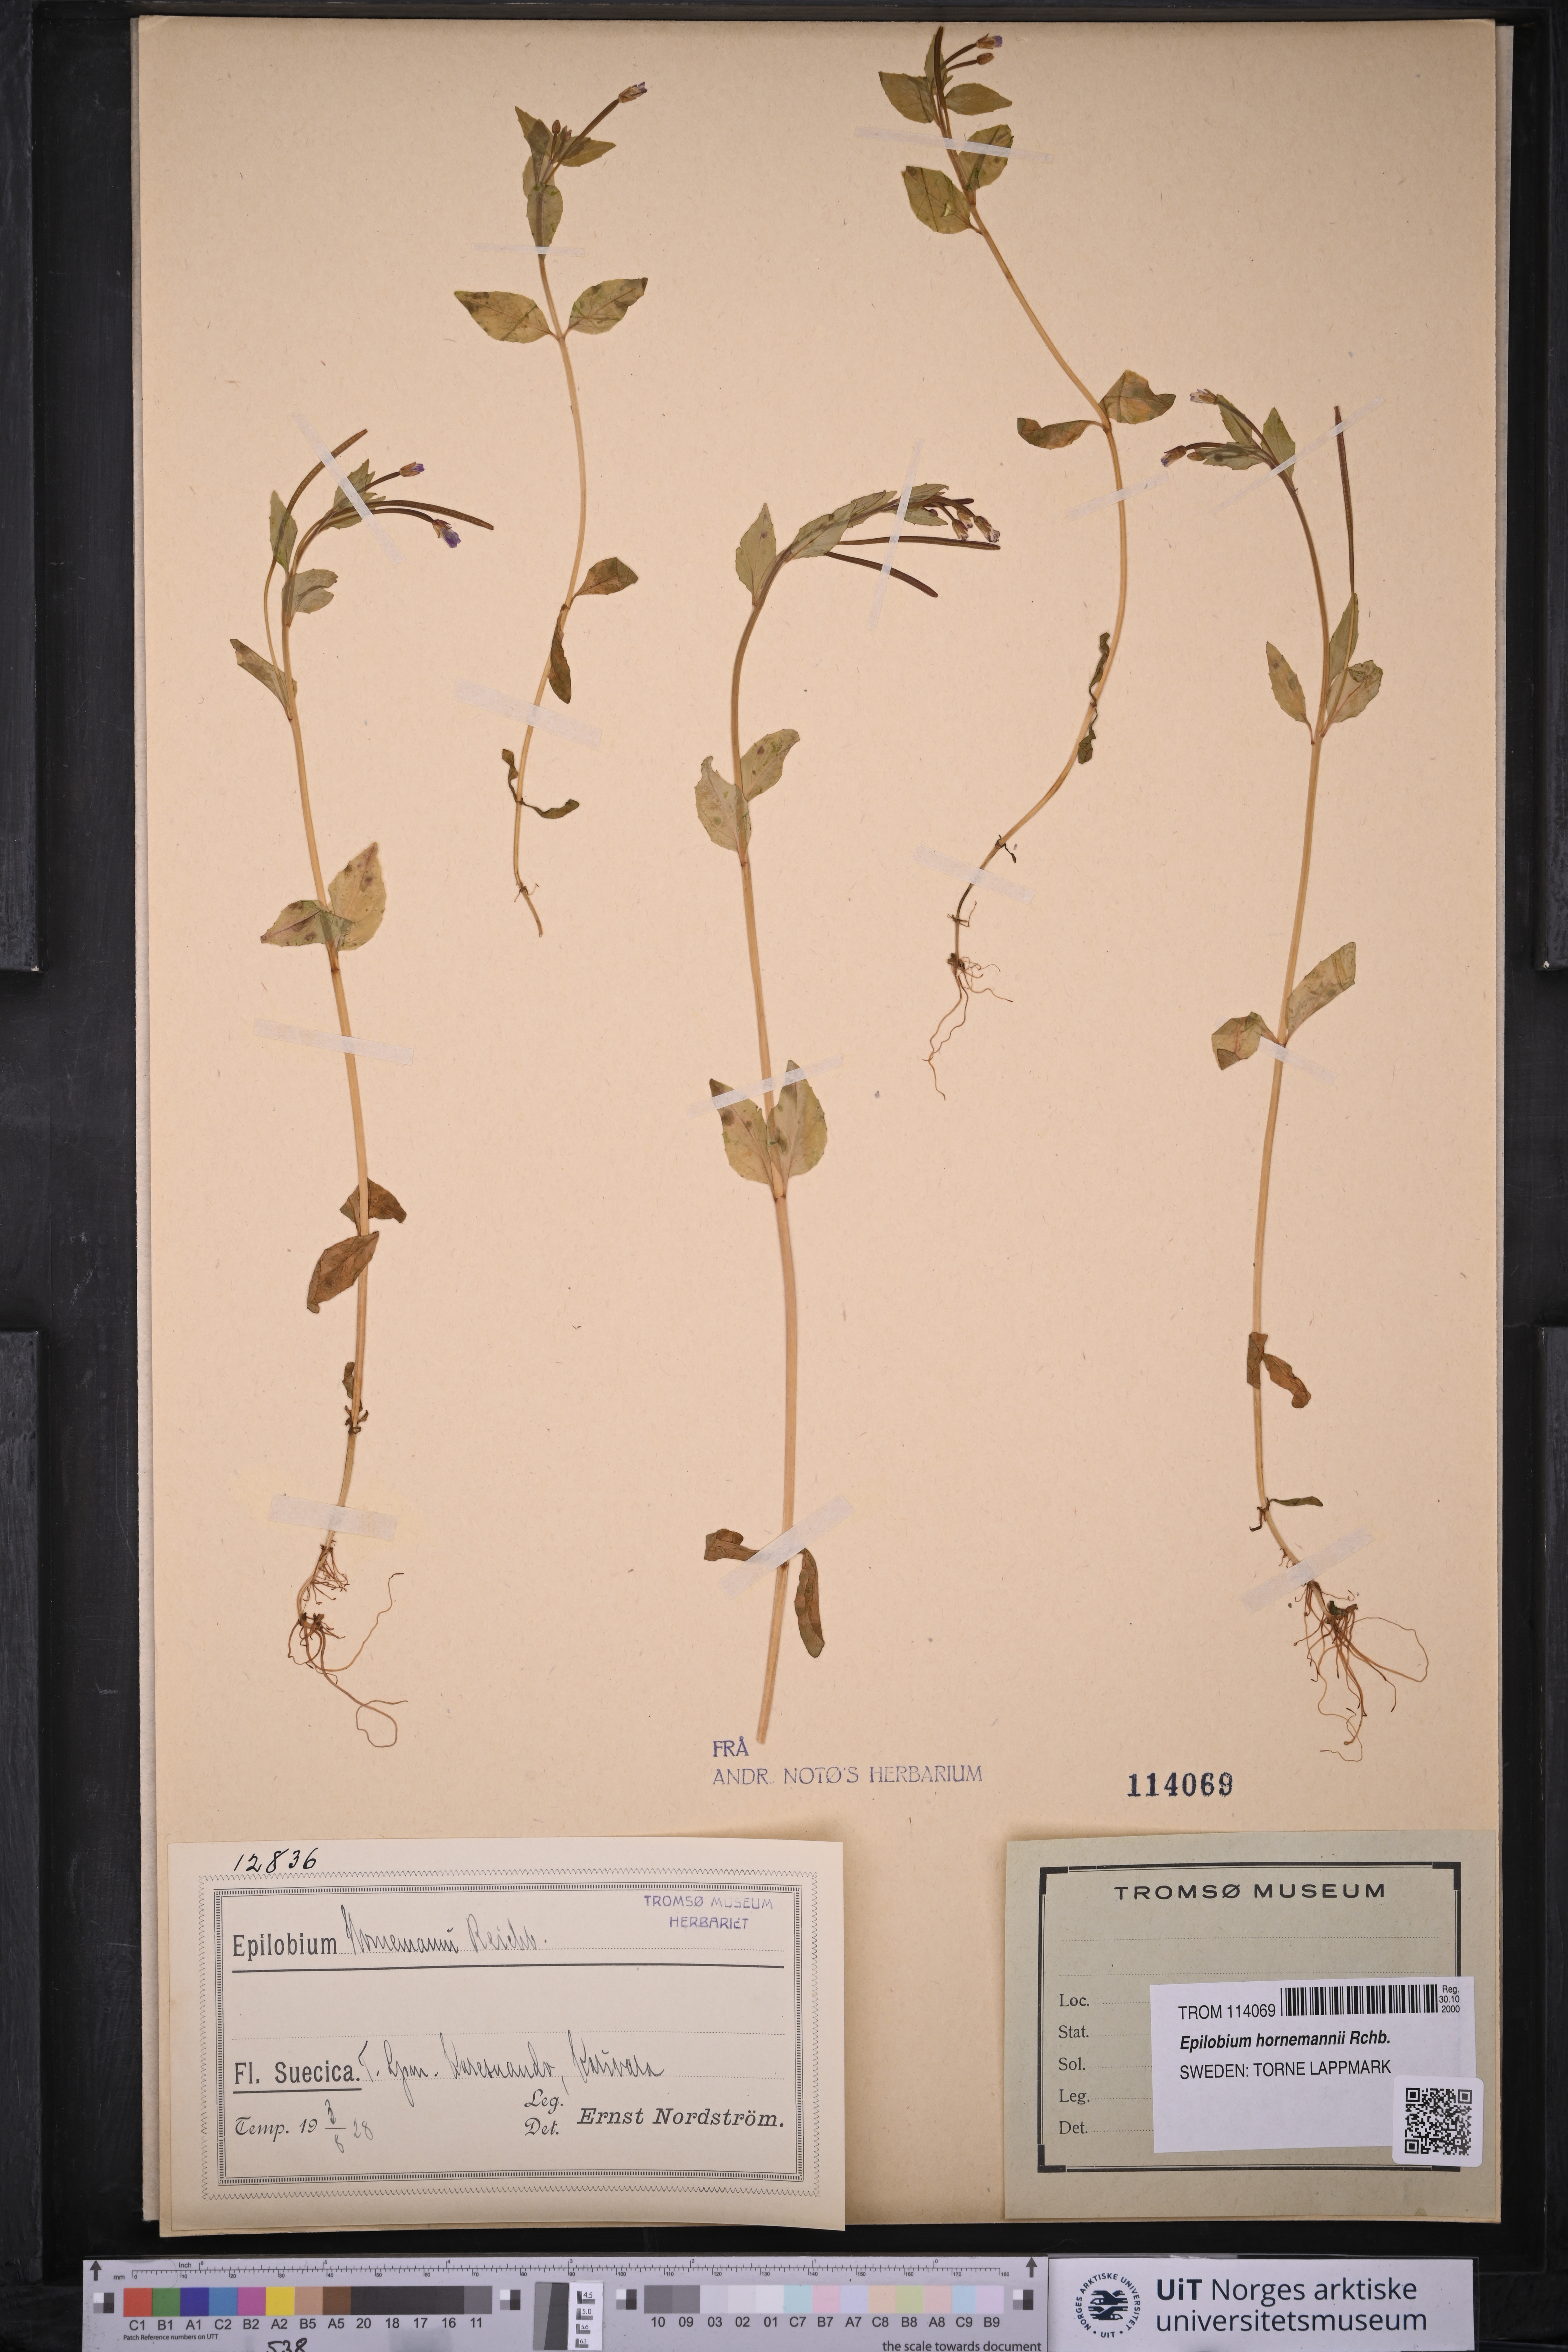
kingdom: Plantae
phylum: Tracheophyta
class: Magnoliopsida
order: Myrtales
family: Onagraceae
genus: Epilobium
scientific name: Epilobium hornemannii
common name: Hornemann's willowherb
